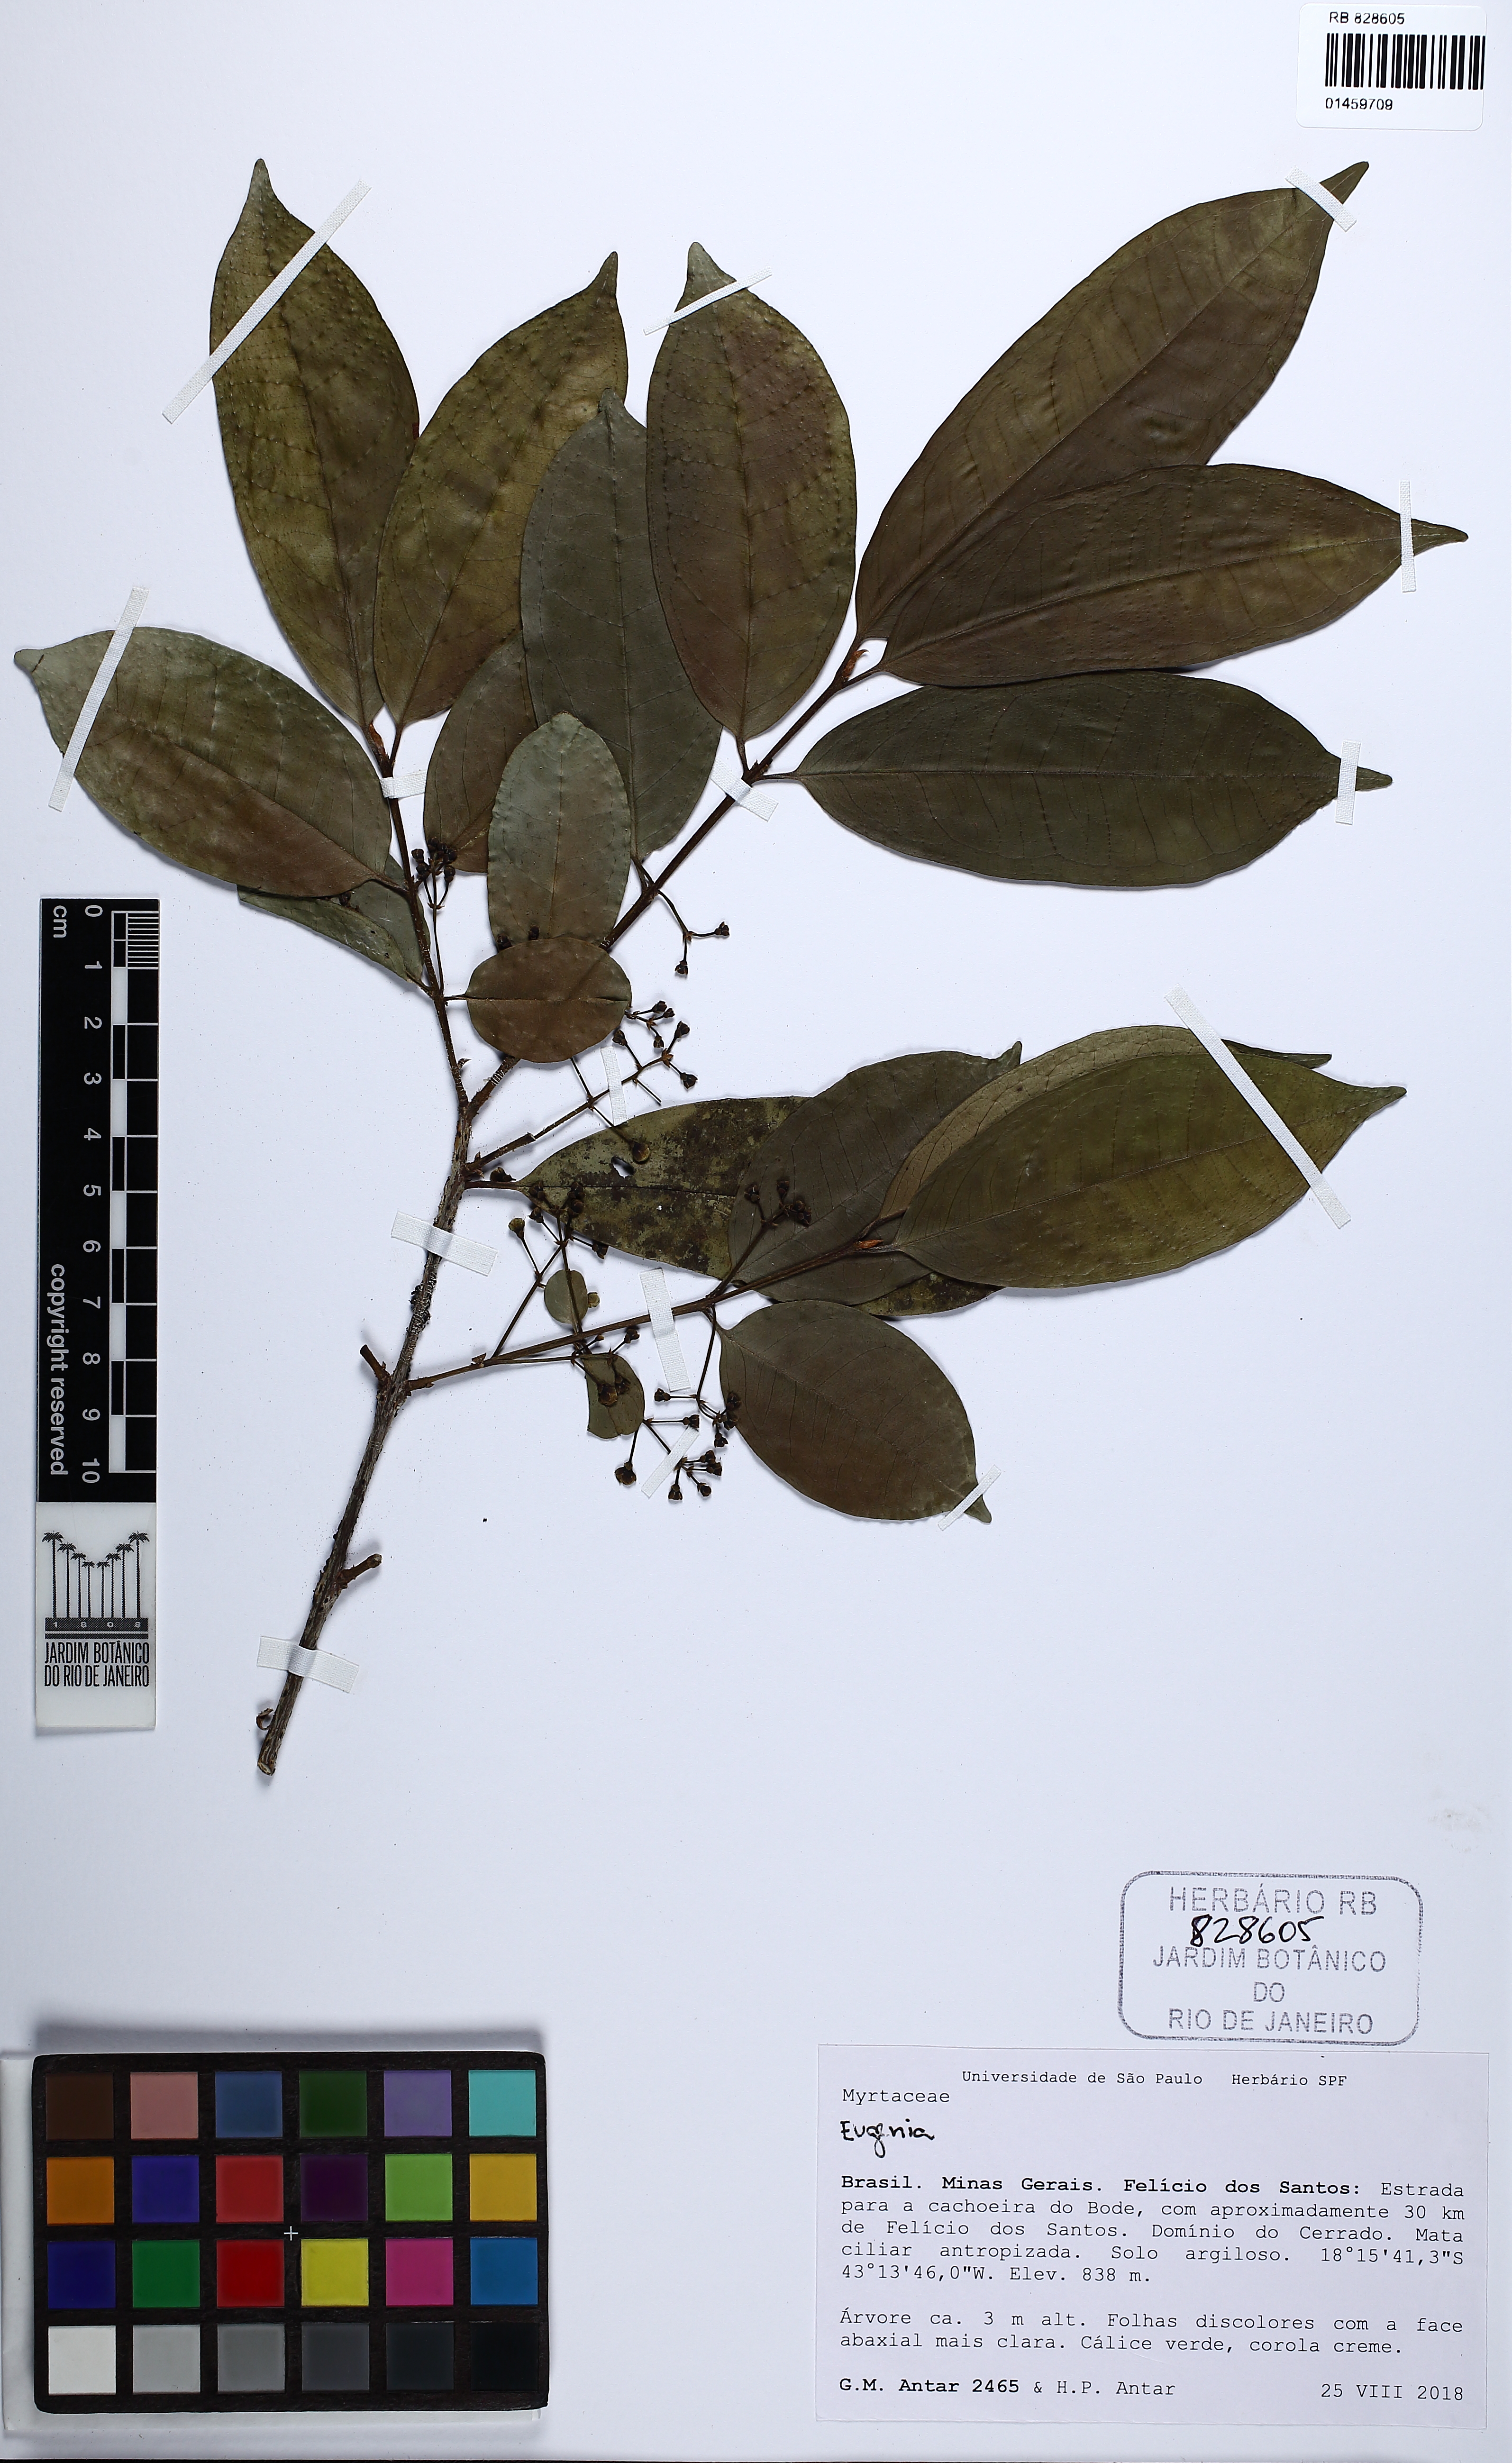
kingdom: Plantae
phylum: Tracheophyta
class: Magnoliopsida
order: Myrtales
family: Myrtaceae
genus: Eugenia
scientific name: Eugenia florida
